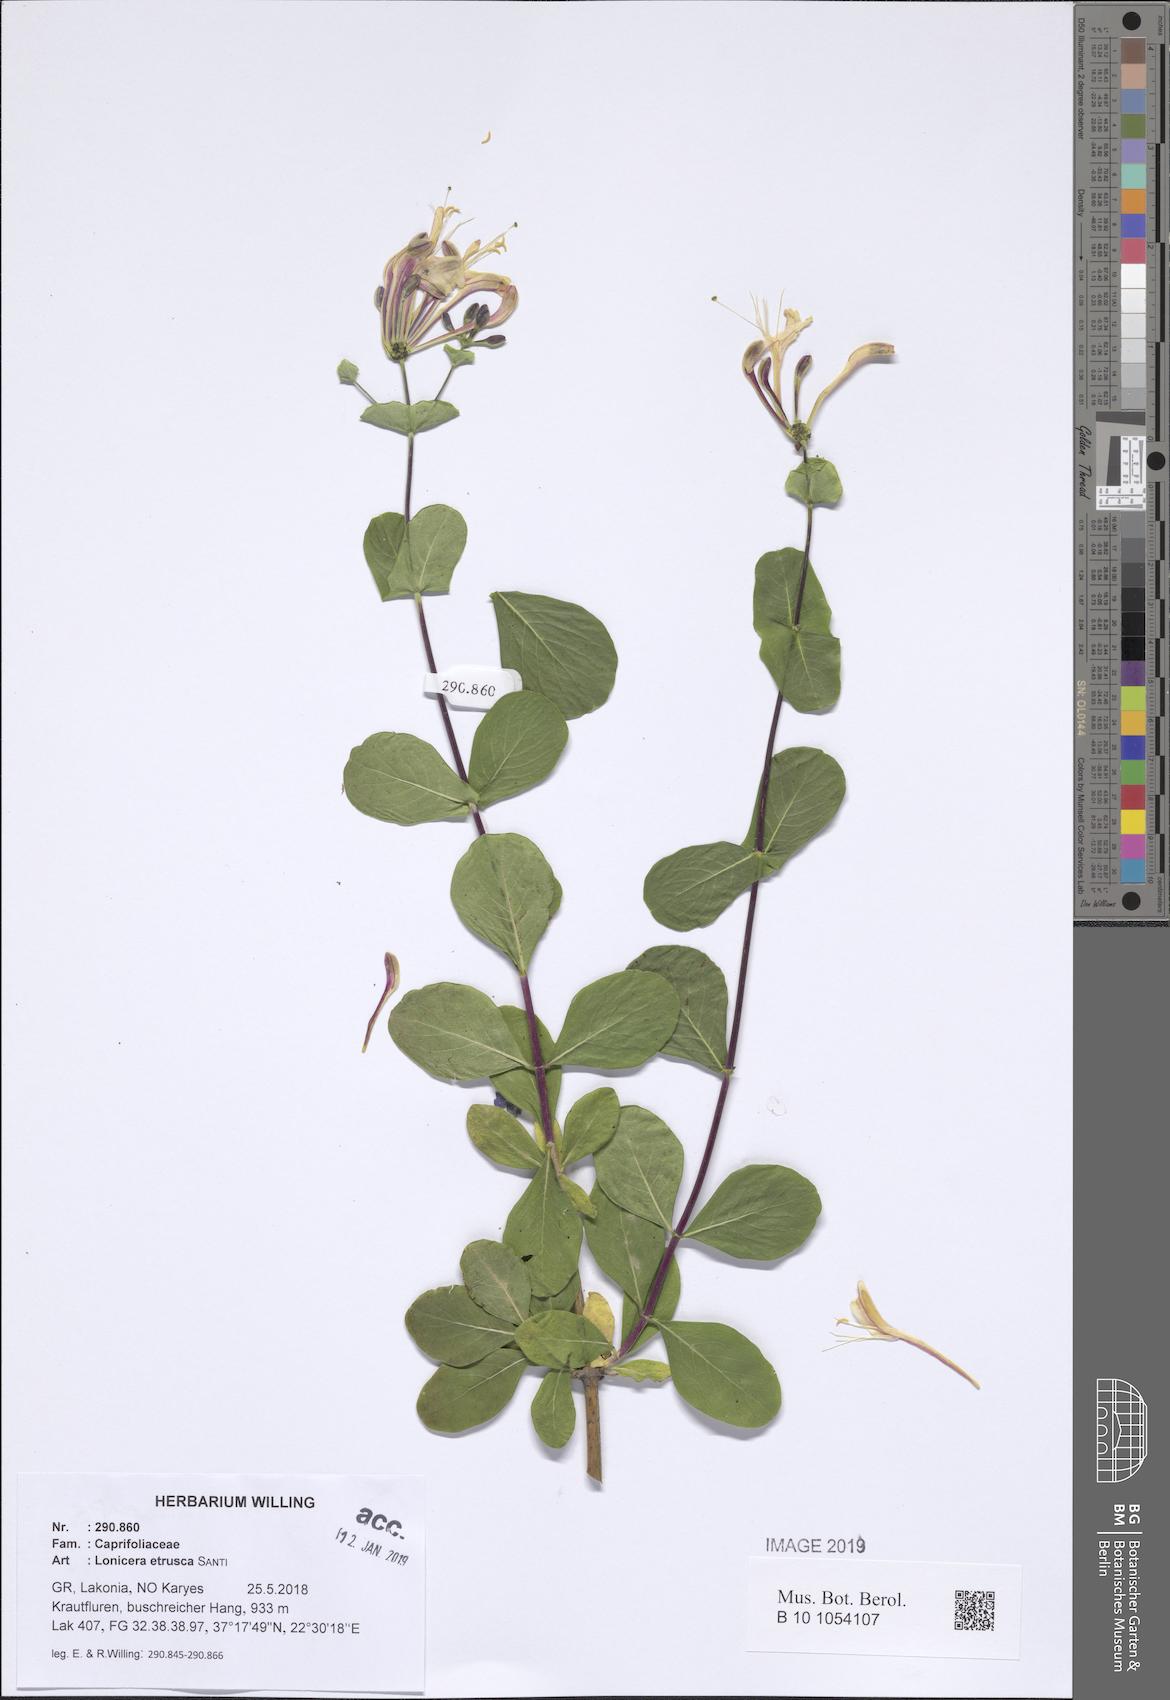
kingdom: Plantae
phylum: Tracheophyta
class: Magnoliopsida
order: Dipsacales
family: Caprifoliaceae
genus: Lonicera
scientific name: Lonicera etrusca
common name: Etruscan honeysuckle
